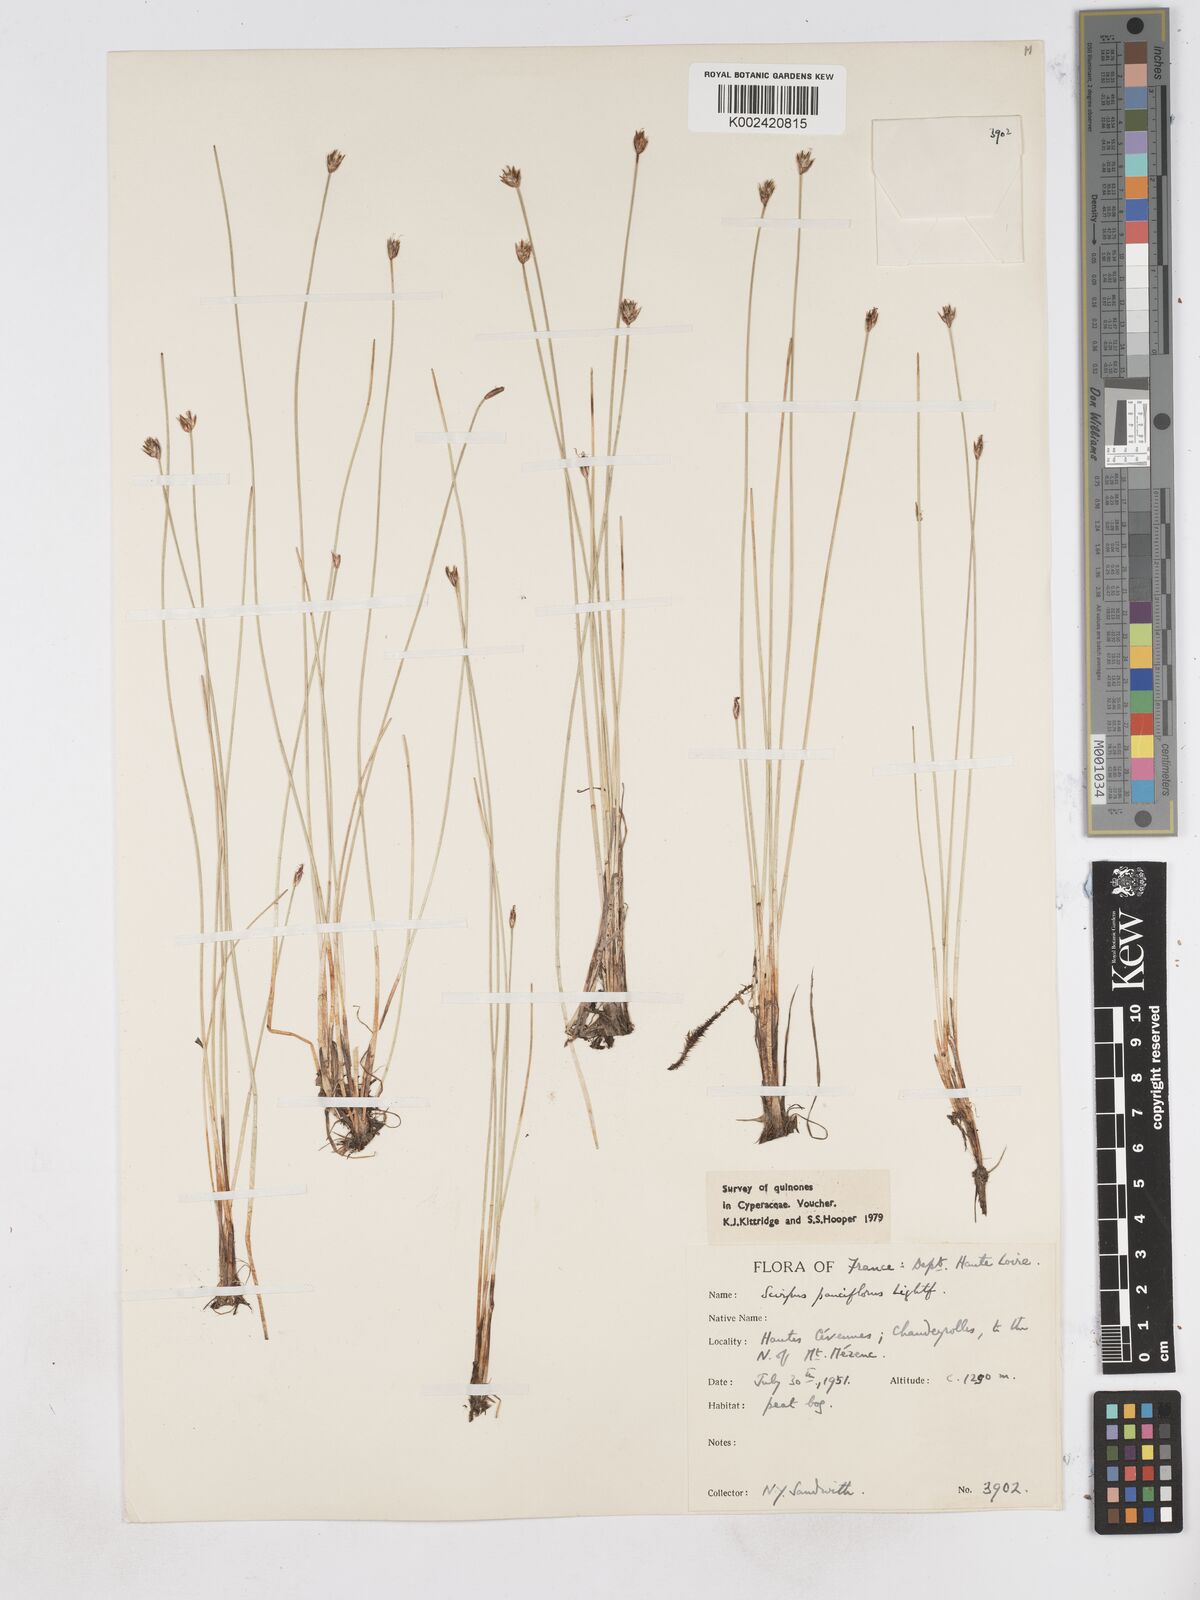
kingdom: Plantae
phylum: Tracheophyta
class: Liliopsida
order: Poales
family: Cyperaceae
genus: Eleocharis
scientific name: Eleocharis quinqueflora
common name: Few-flowered spike-rush
